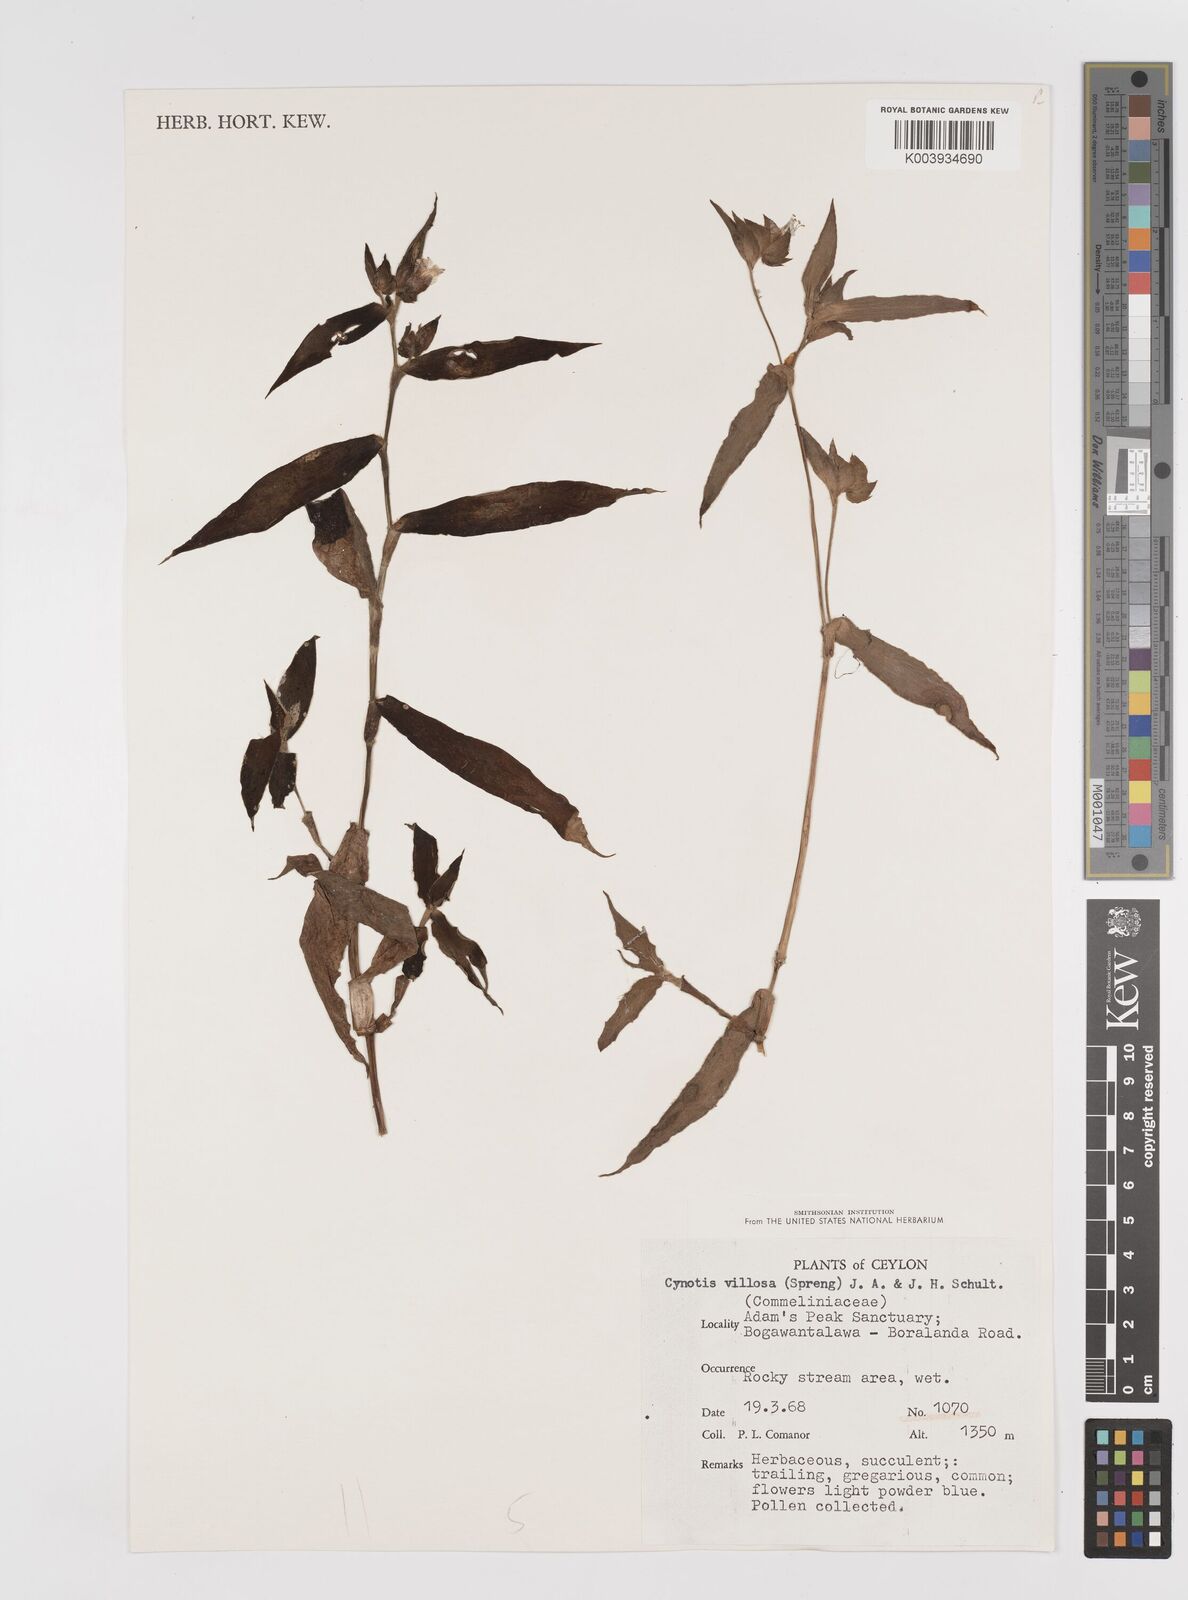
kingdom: Plantae
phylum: Tracheophyta
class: Liliopsida
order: Commelinales
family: Commelinaceae
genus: Cyanotis
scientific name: Cyanotis villosa
